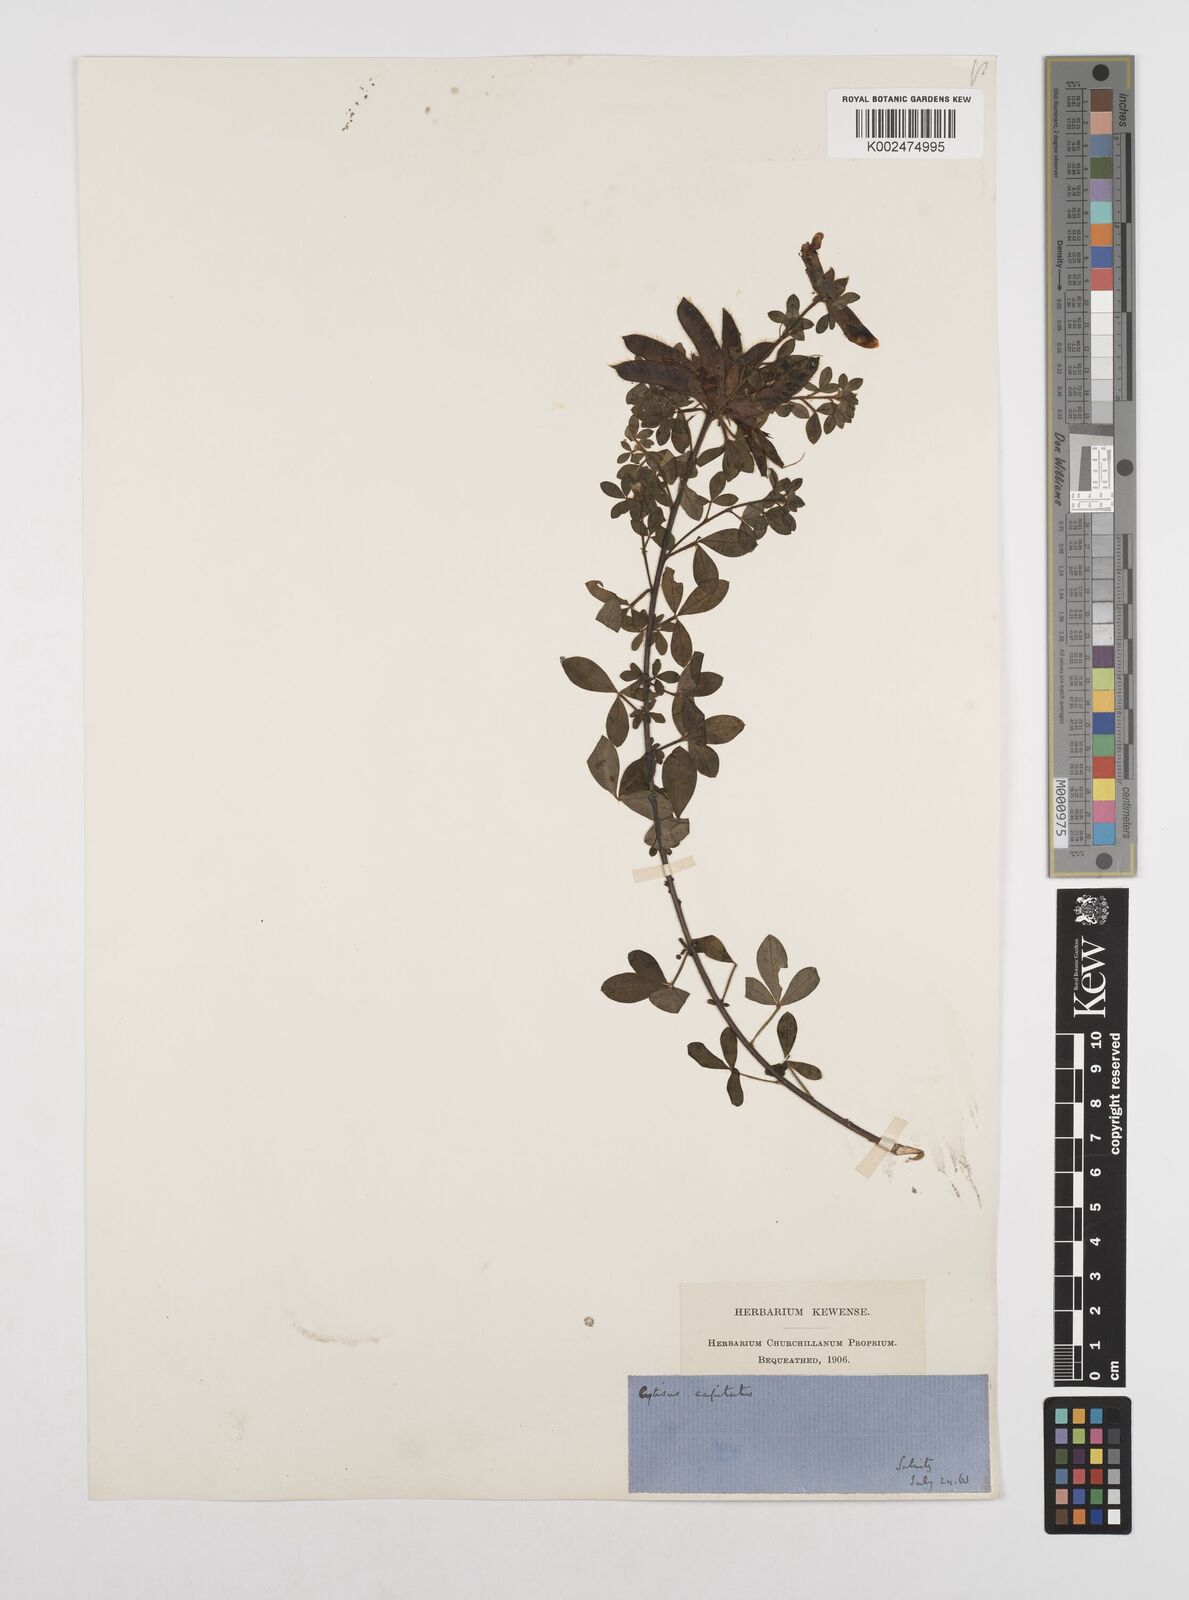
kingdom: Plantae
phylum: Tracheophyta
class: Magnoliopsida
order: Fabales
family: Fabaceae
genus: Chamaecytisus
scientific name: Chamaecytisus hirsutus
